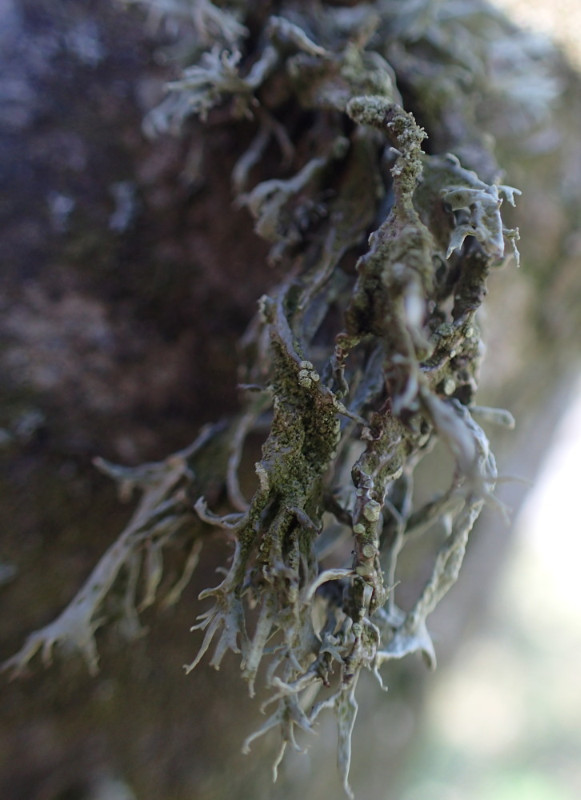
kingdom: Fungi
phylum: Ascomycota
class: Lecanoromycetes
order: Lecanorales
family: Ramalinaceae
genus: Ramalina
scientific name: Ramalina farinacea
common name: melet grenlav
